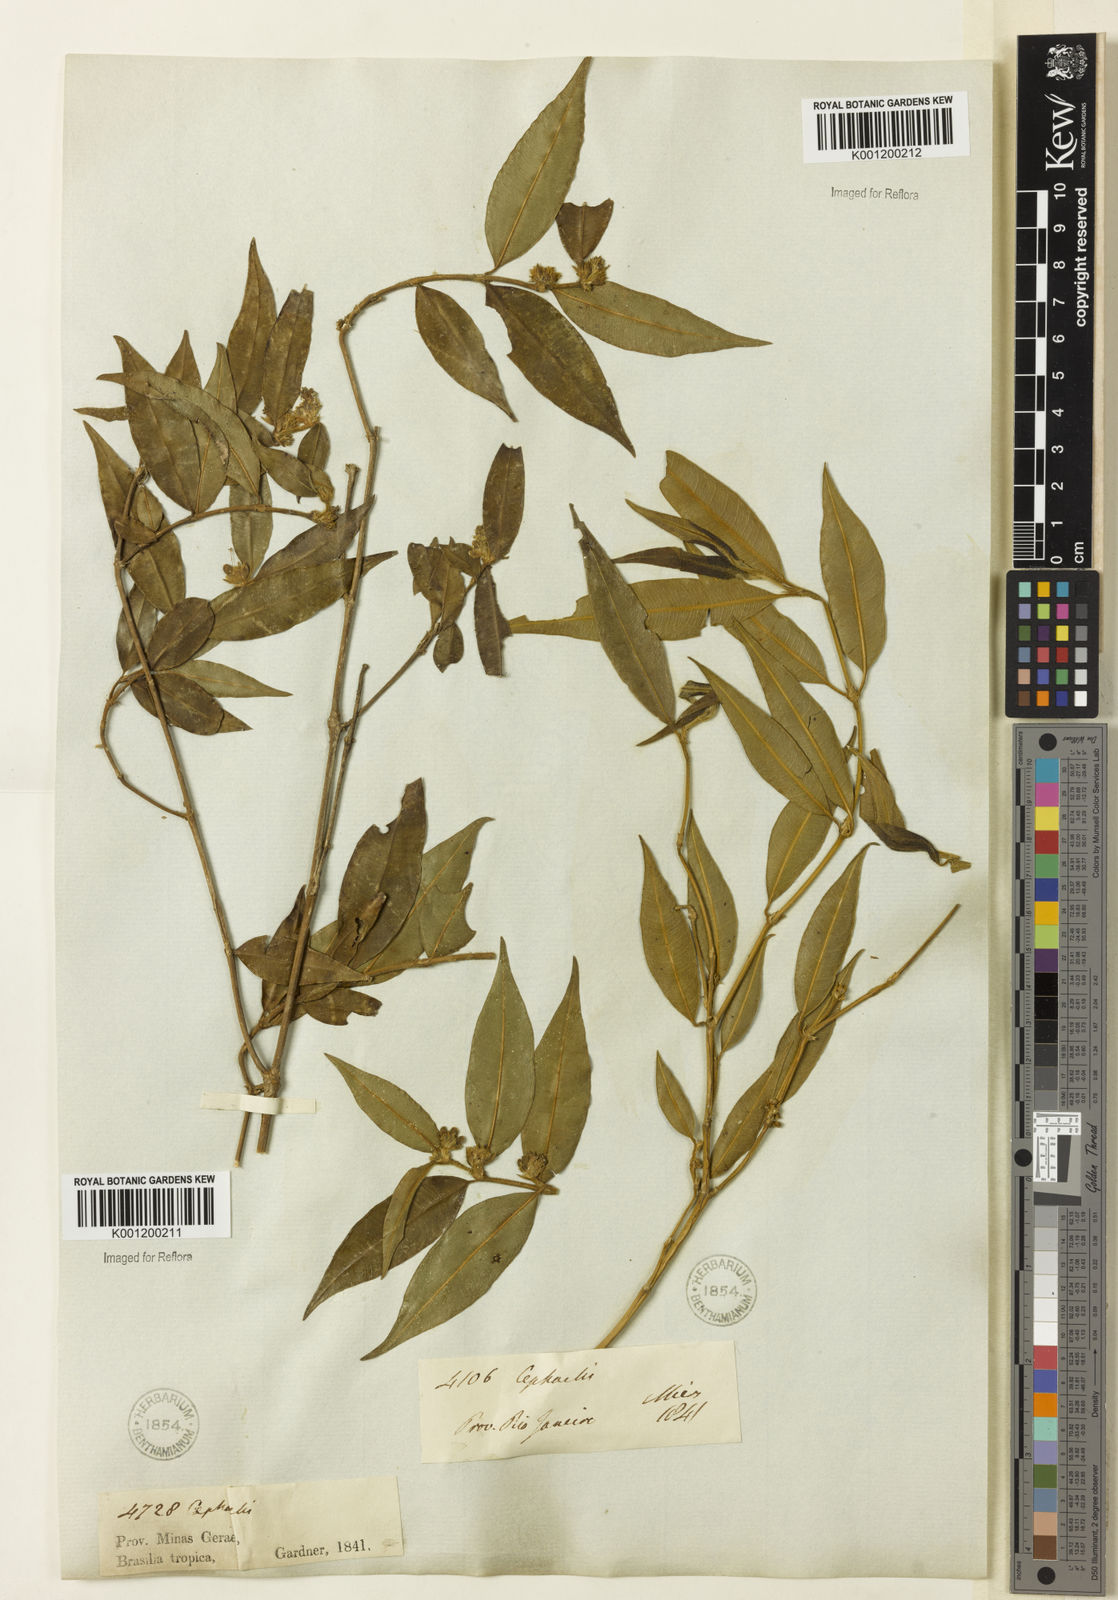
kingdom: Plantae
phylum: Tracheophyta
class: Magnoliopsida
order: Gentianales
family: Rubiaceae
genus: Rudgea
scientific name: Rudgea sessilis
